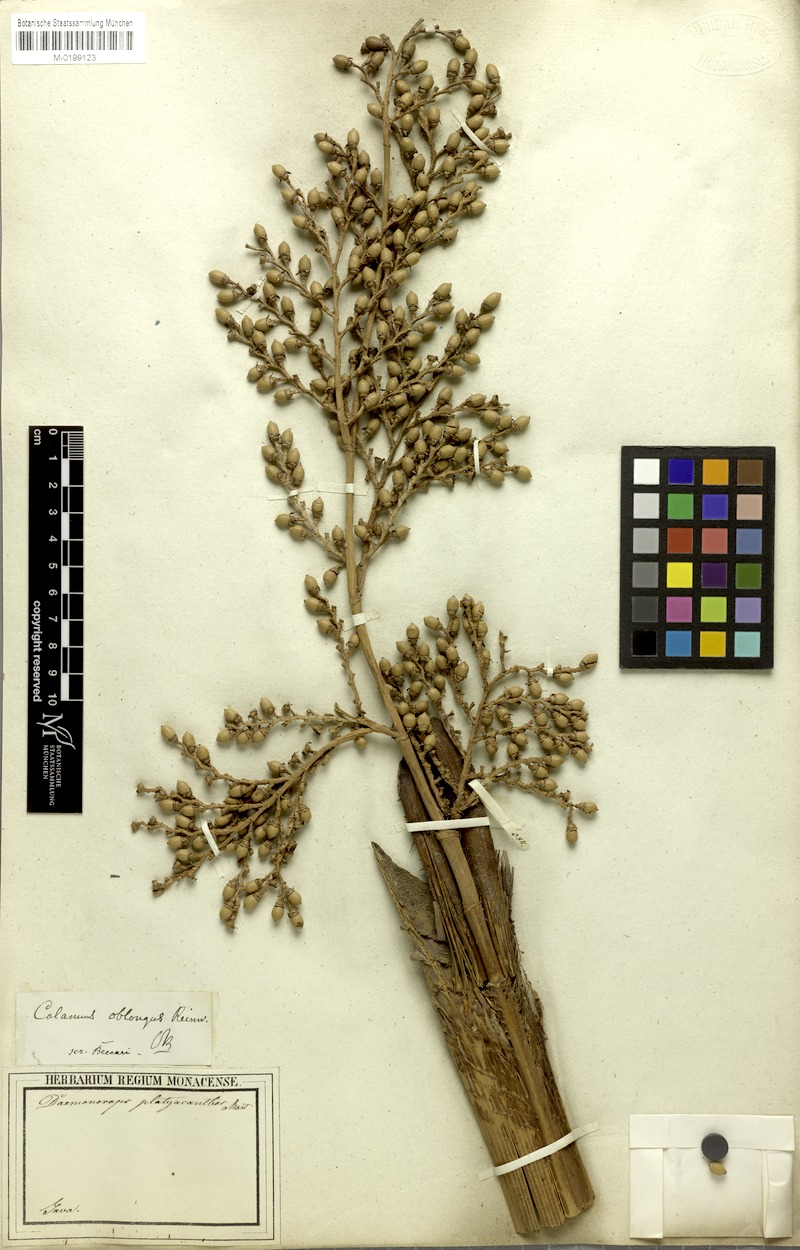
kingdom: Plantae
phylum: Tracheophyta
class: Liliopsida
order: Arecales
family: Arecaceae
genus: Calamus
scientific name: Calamus oblongus
